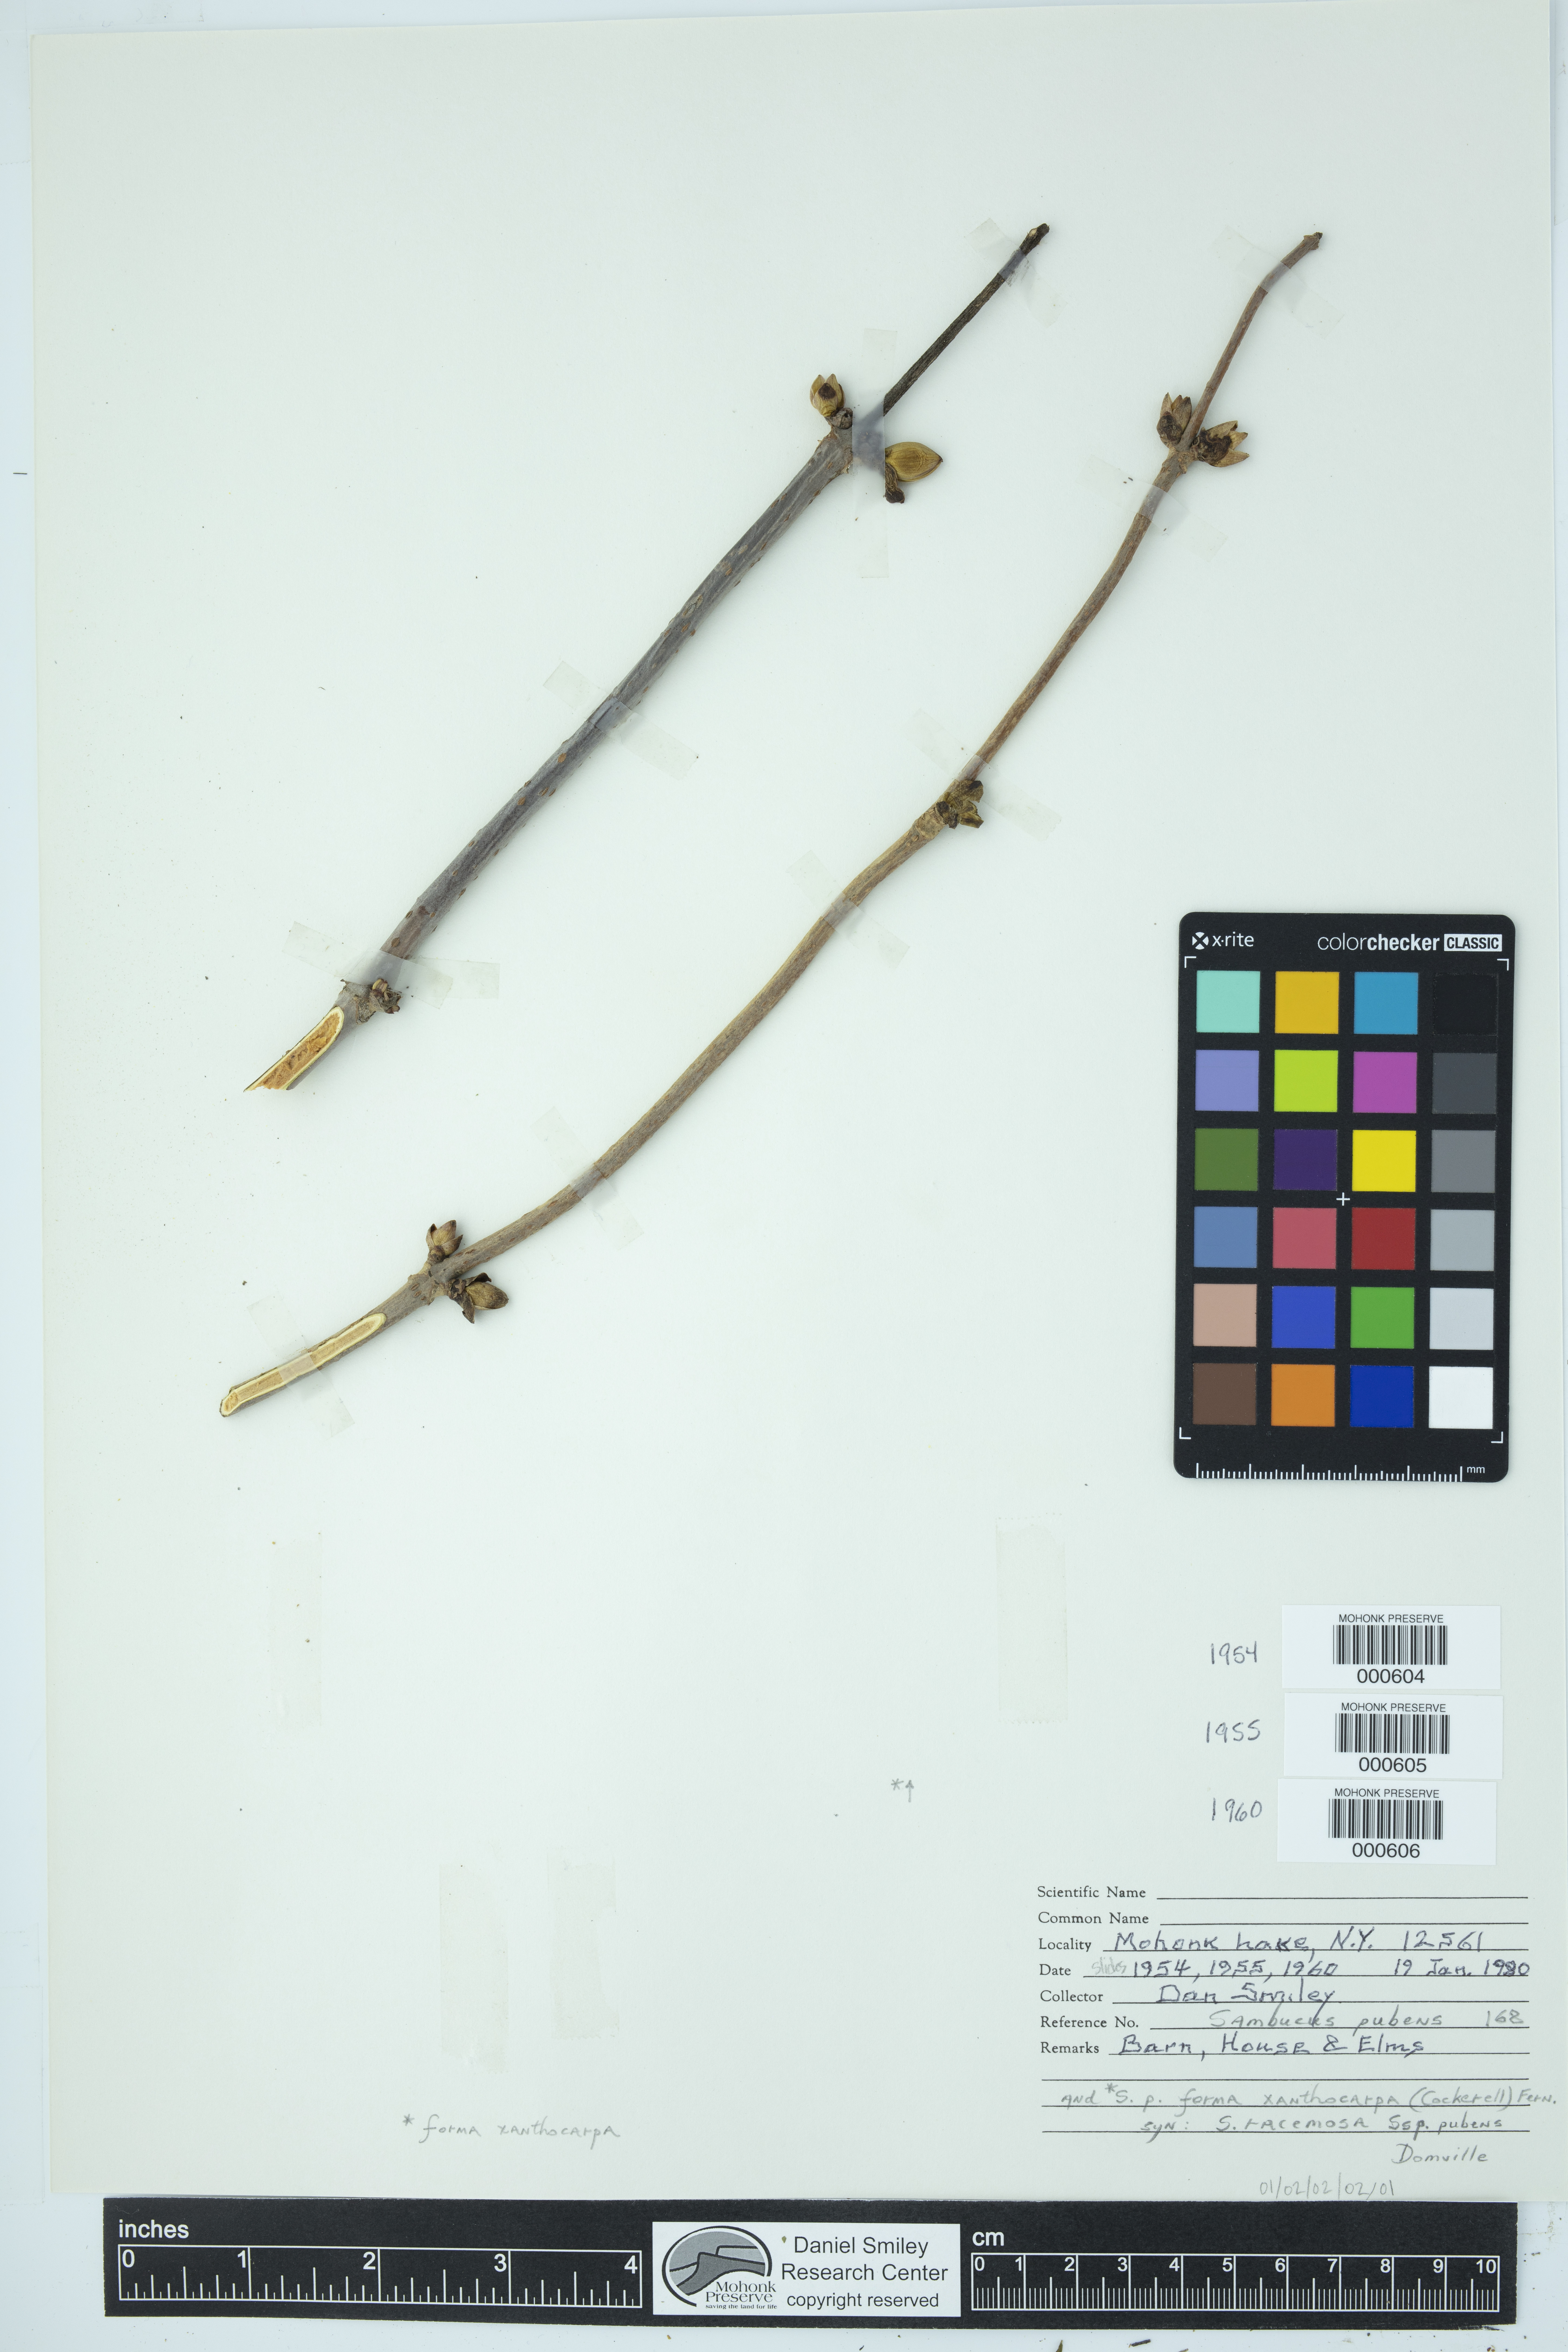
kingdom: Plantae
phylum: Tracheophyta
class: Magnoliopsida
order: Dipsacales
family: Viburnaceae
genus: Sambucus
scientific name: Sambucus racemosa
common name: Red-berried elder
